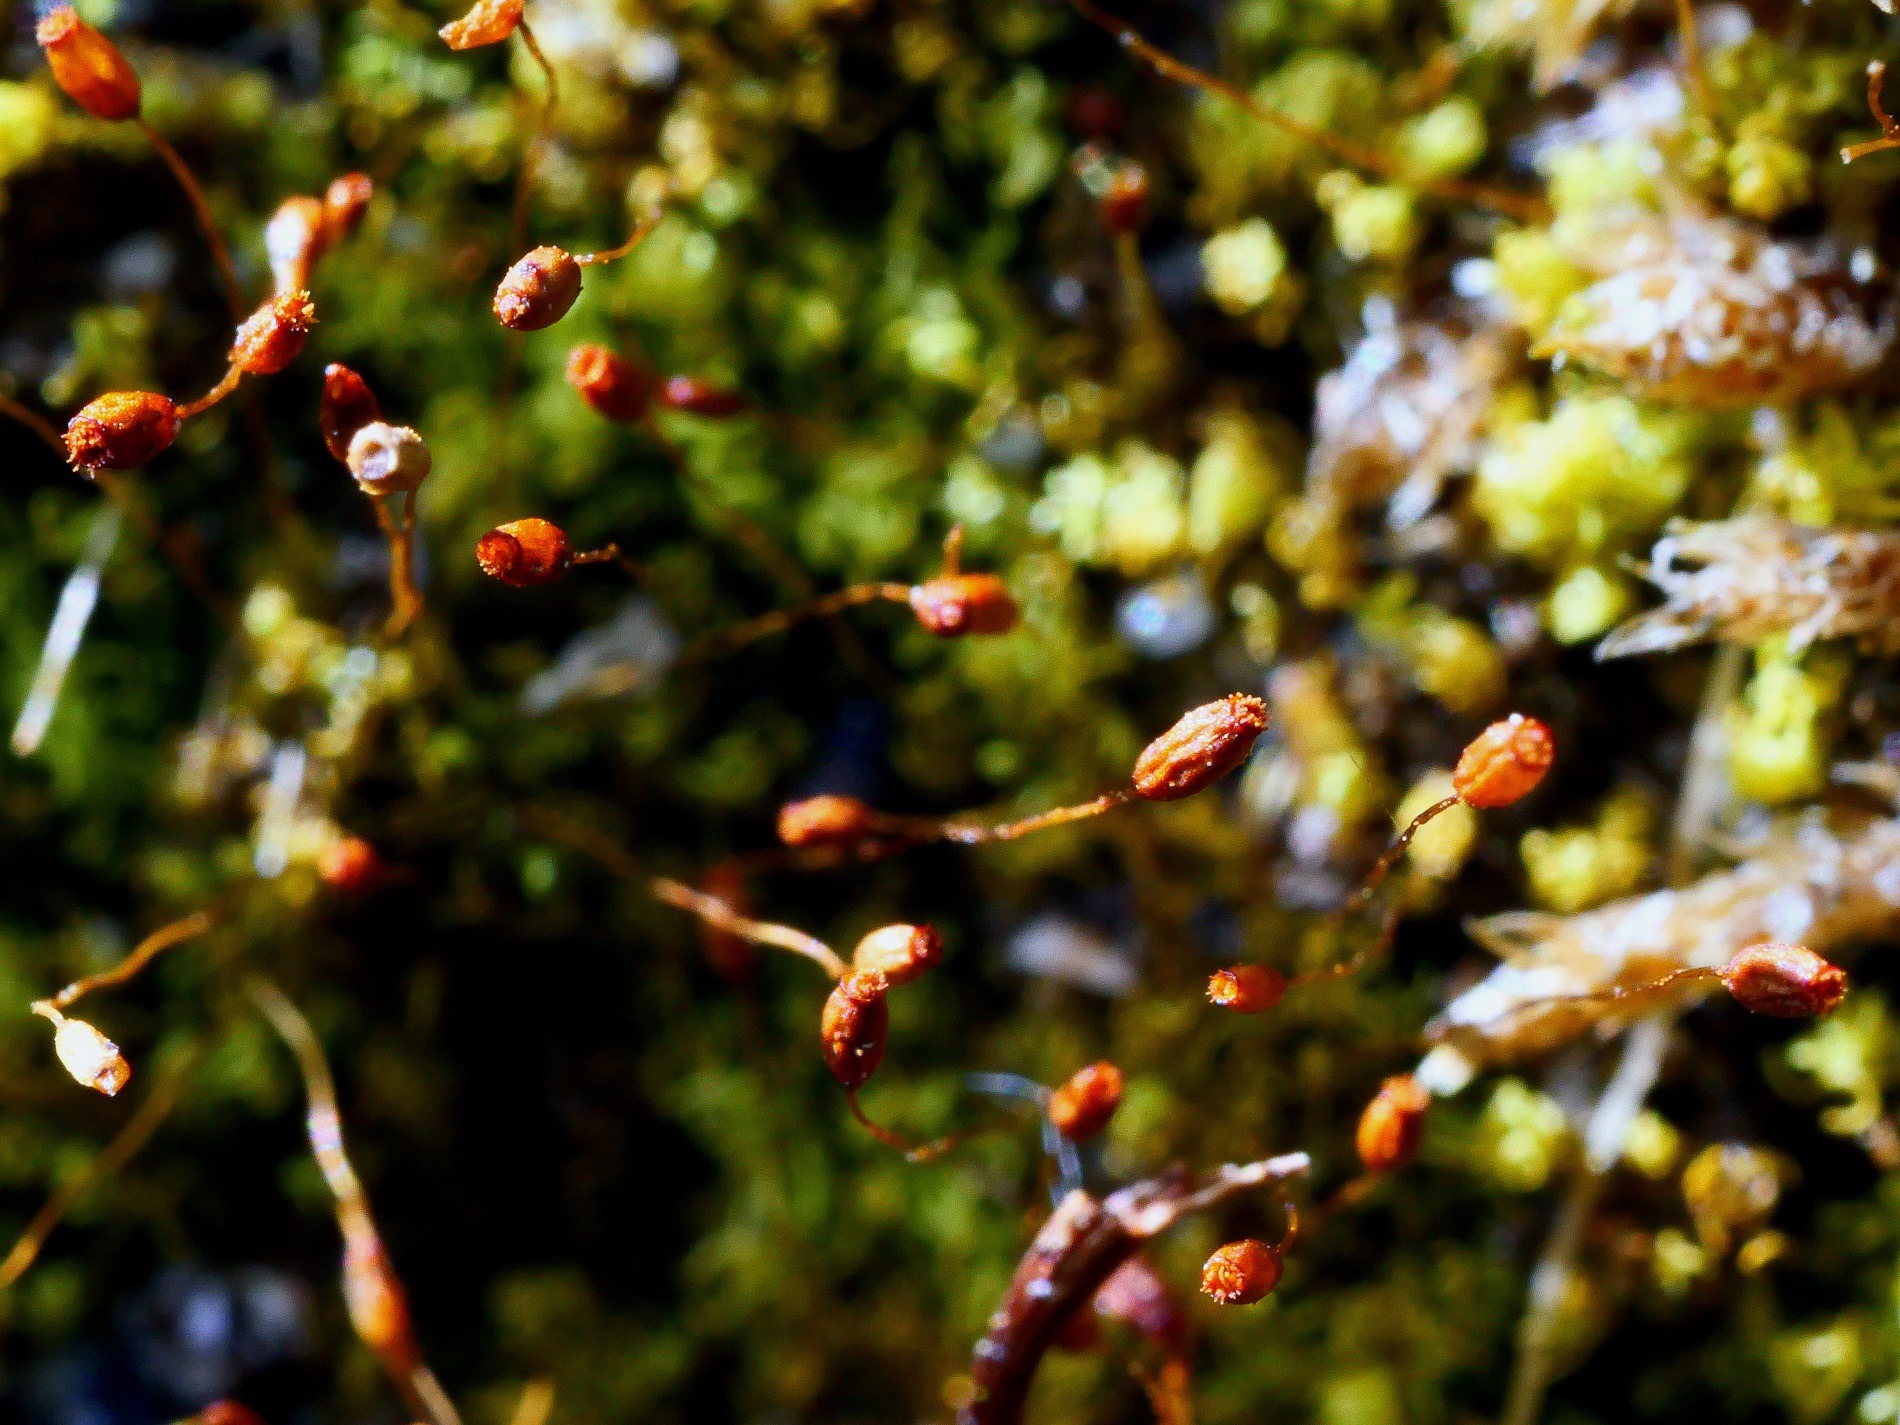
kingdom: Plantae
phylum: Bryophyta
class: Bryopsida
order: Pottiales
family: Pottiaceae
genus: Weissia
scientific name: Weissia controversa
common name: Smaltandet krusmos
